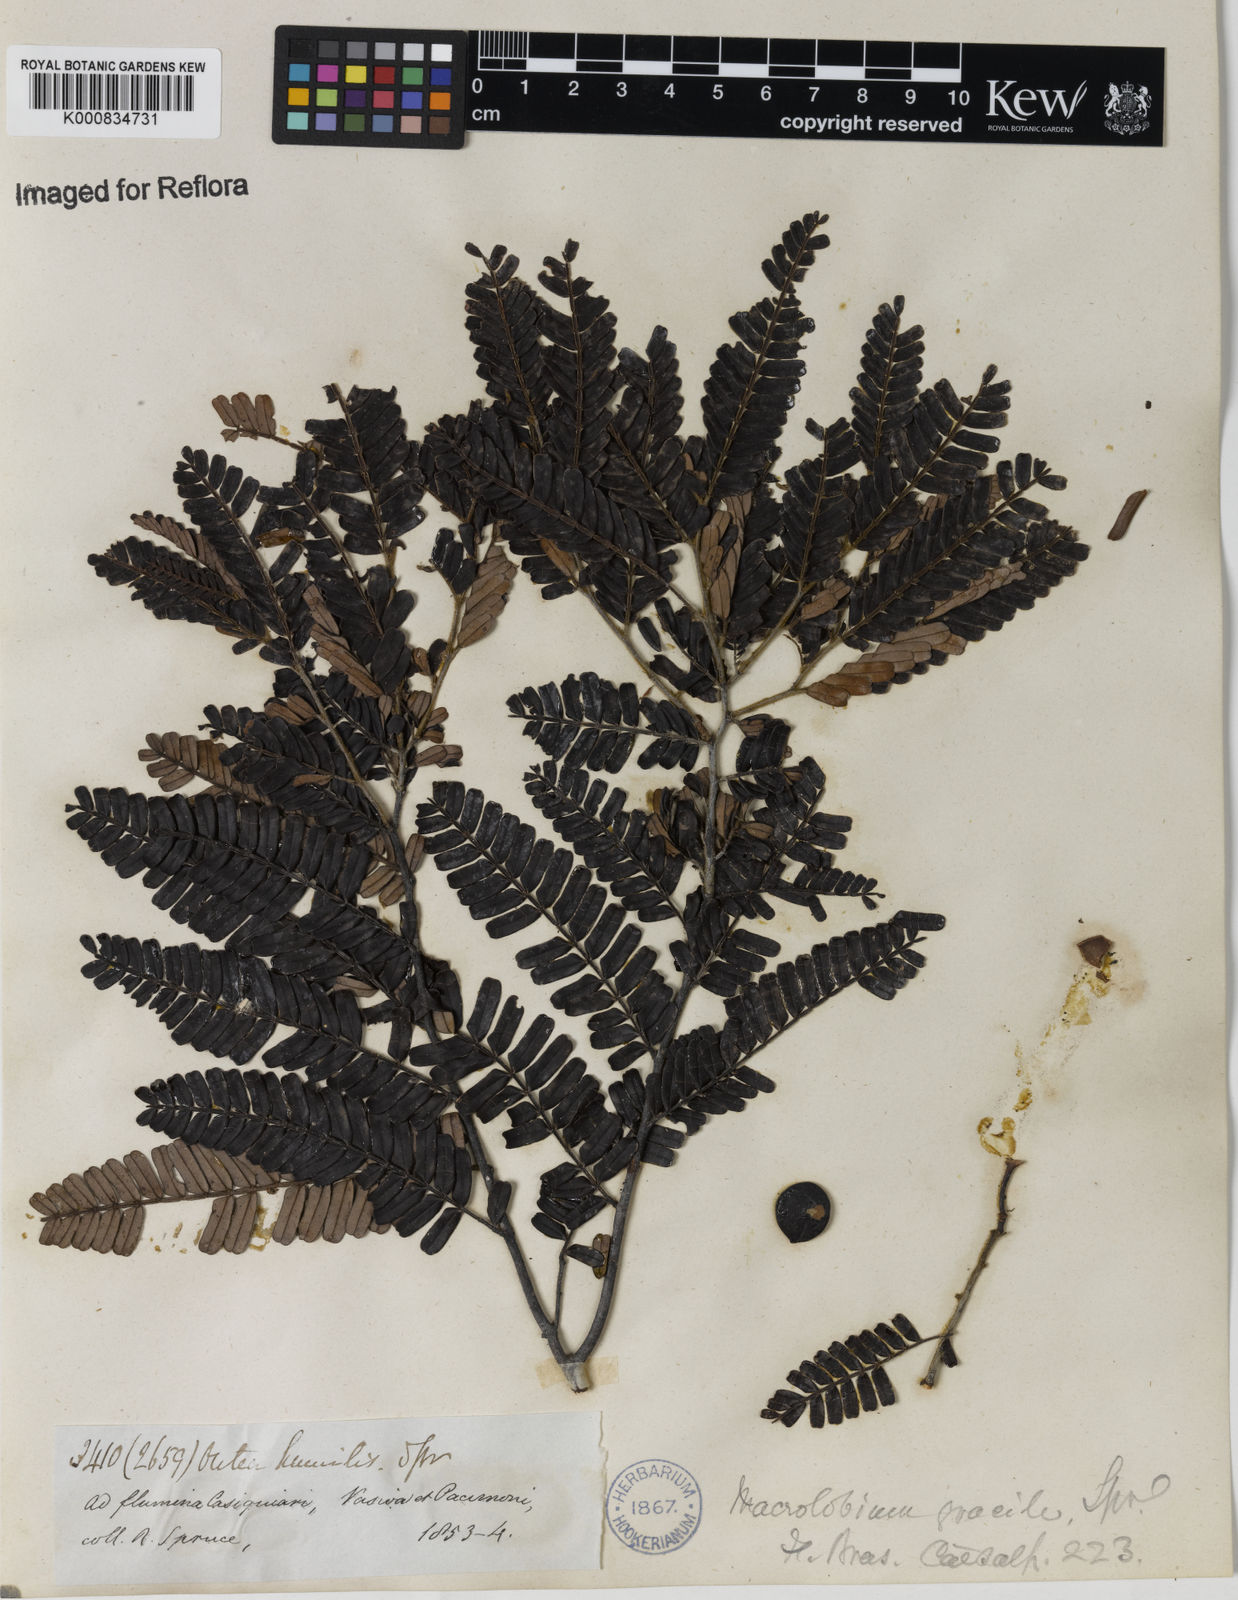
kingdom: Plantae
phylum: Tracheophyta
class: Magnoliopsida
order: Fabales
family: Fabaceae
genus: Macrolobium
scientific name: Macrolobium gracile
